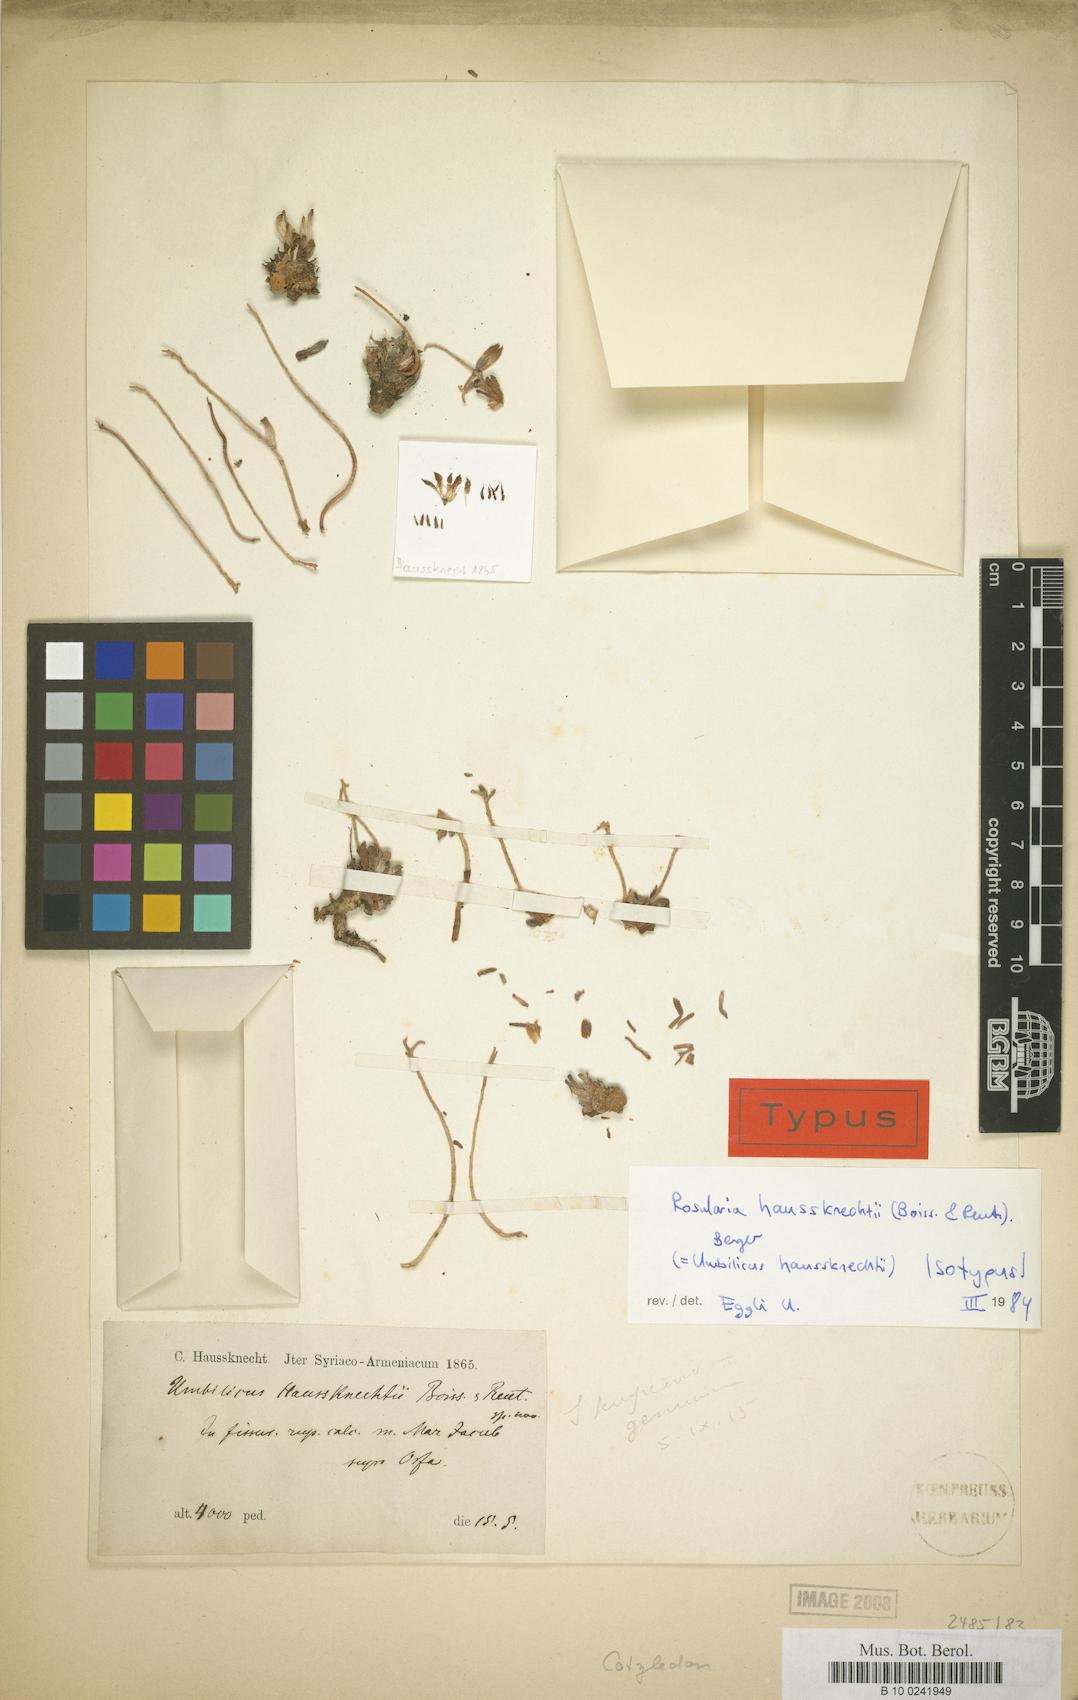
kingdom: Plantae
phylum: Tracheophyta
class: Magnoliopsida
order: Saxifragales
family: Crassulaceae
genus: Rosularia
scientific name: Rosularia haussknechtii
